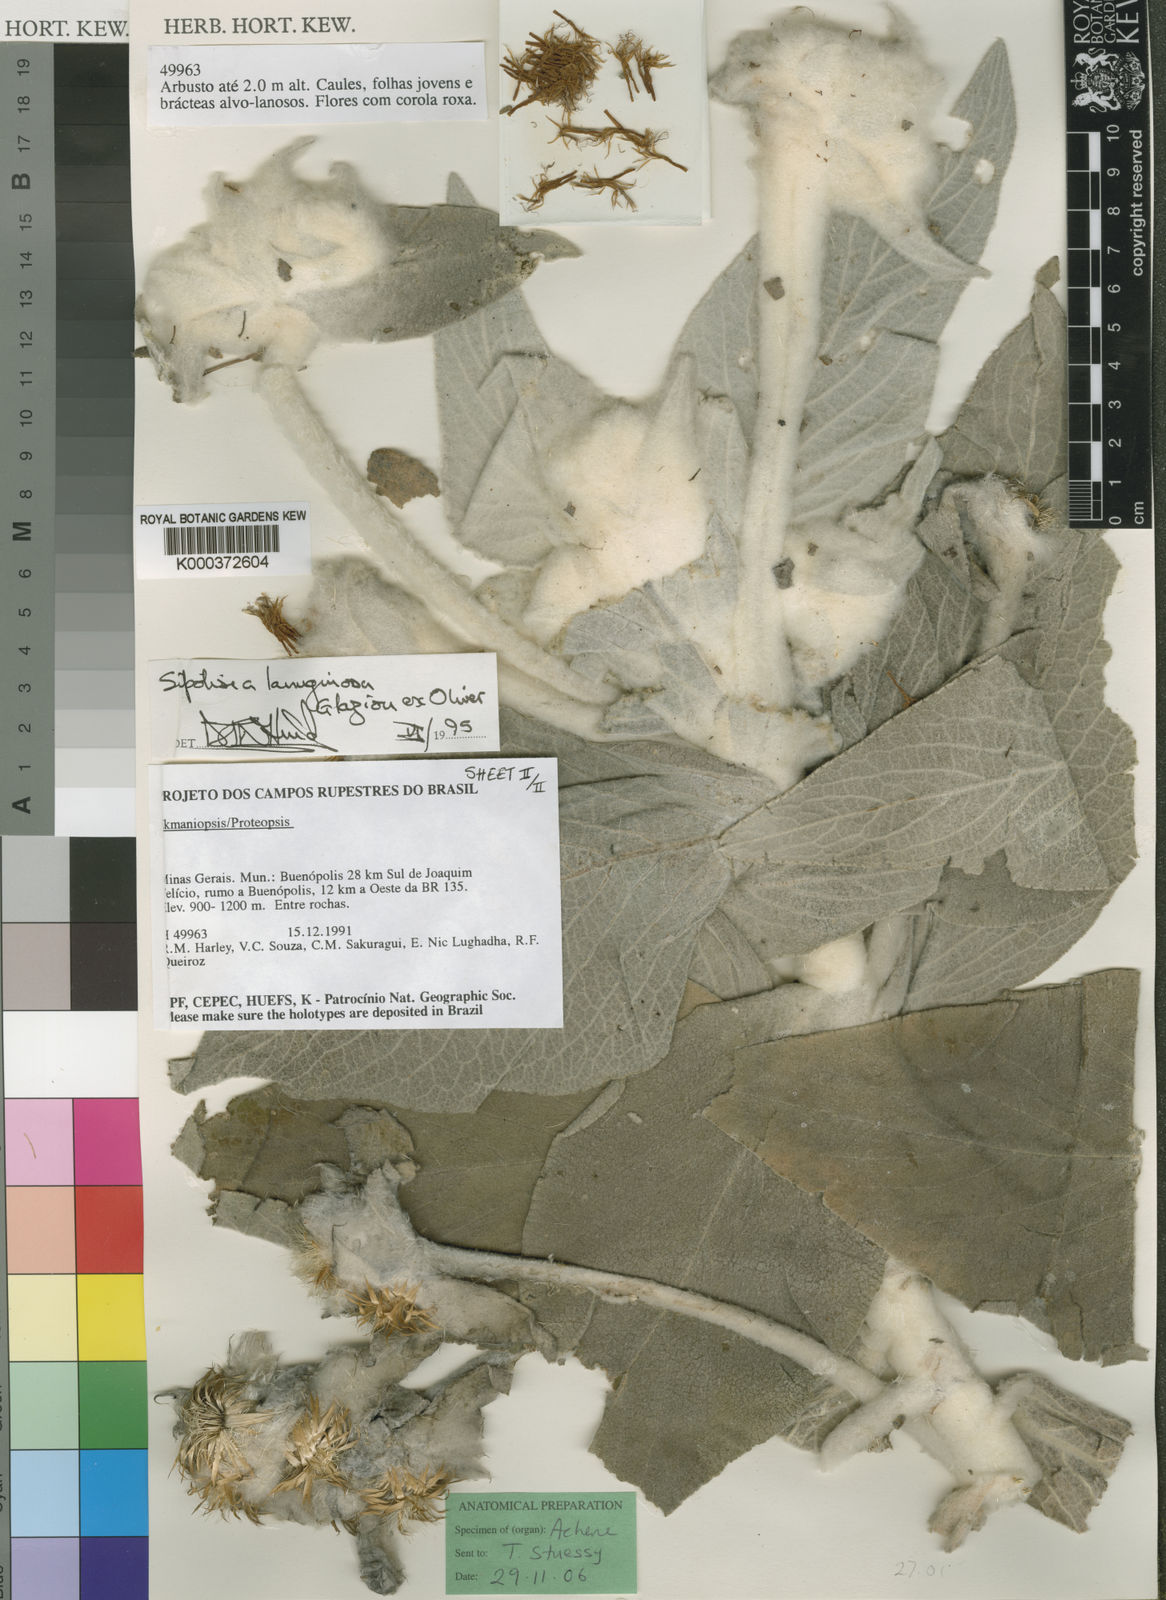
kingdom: Plantae
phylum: Tracheophyta
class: Magnoliopsida
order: Asterales
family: Asteraceae
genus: Heterocoma
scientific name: Heterocoma lanuginosa
